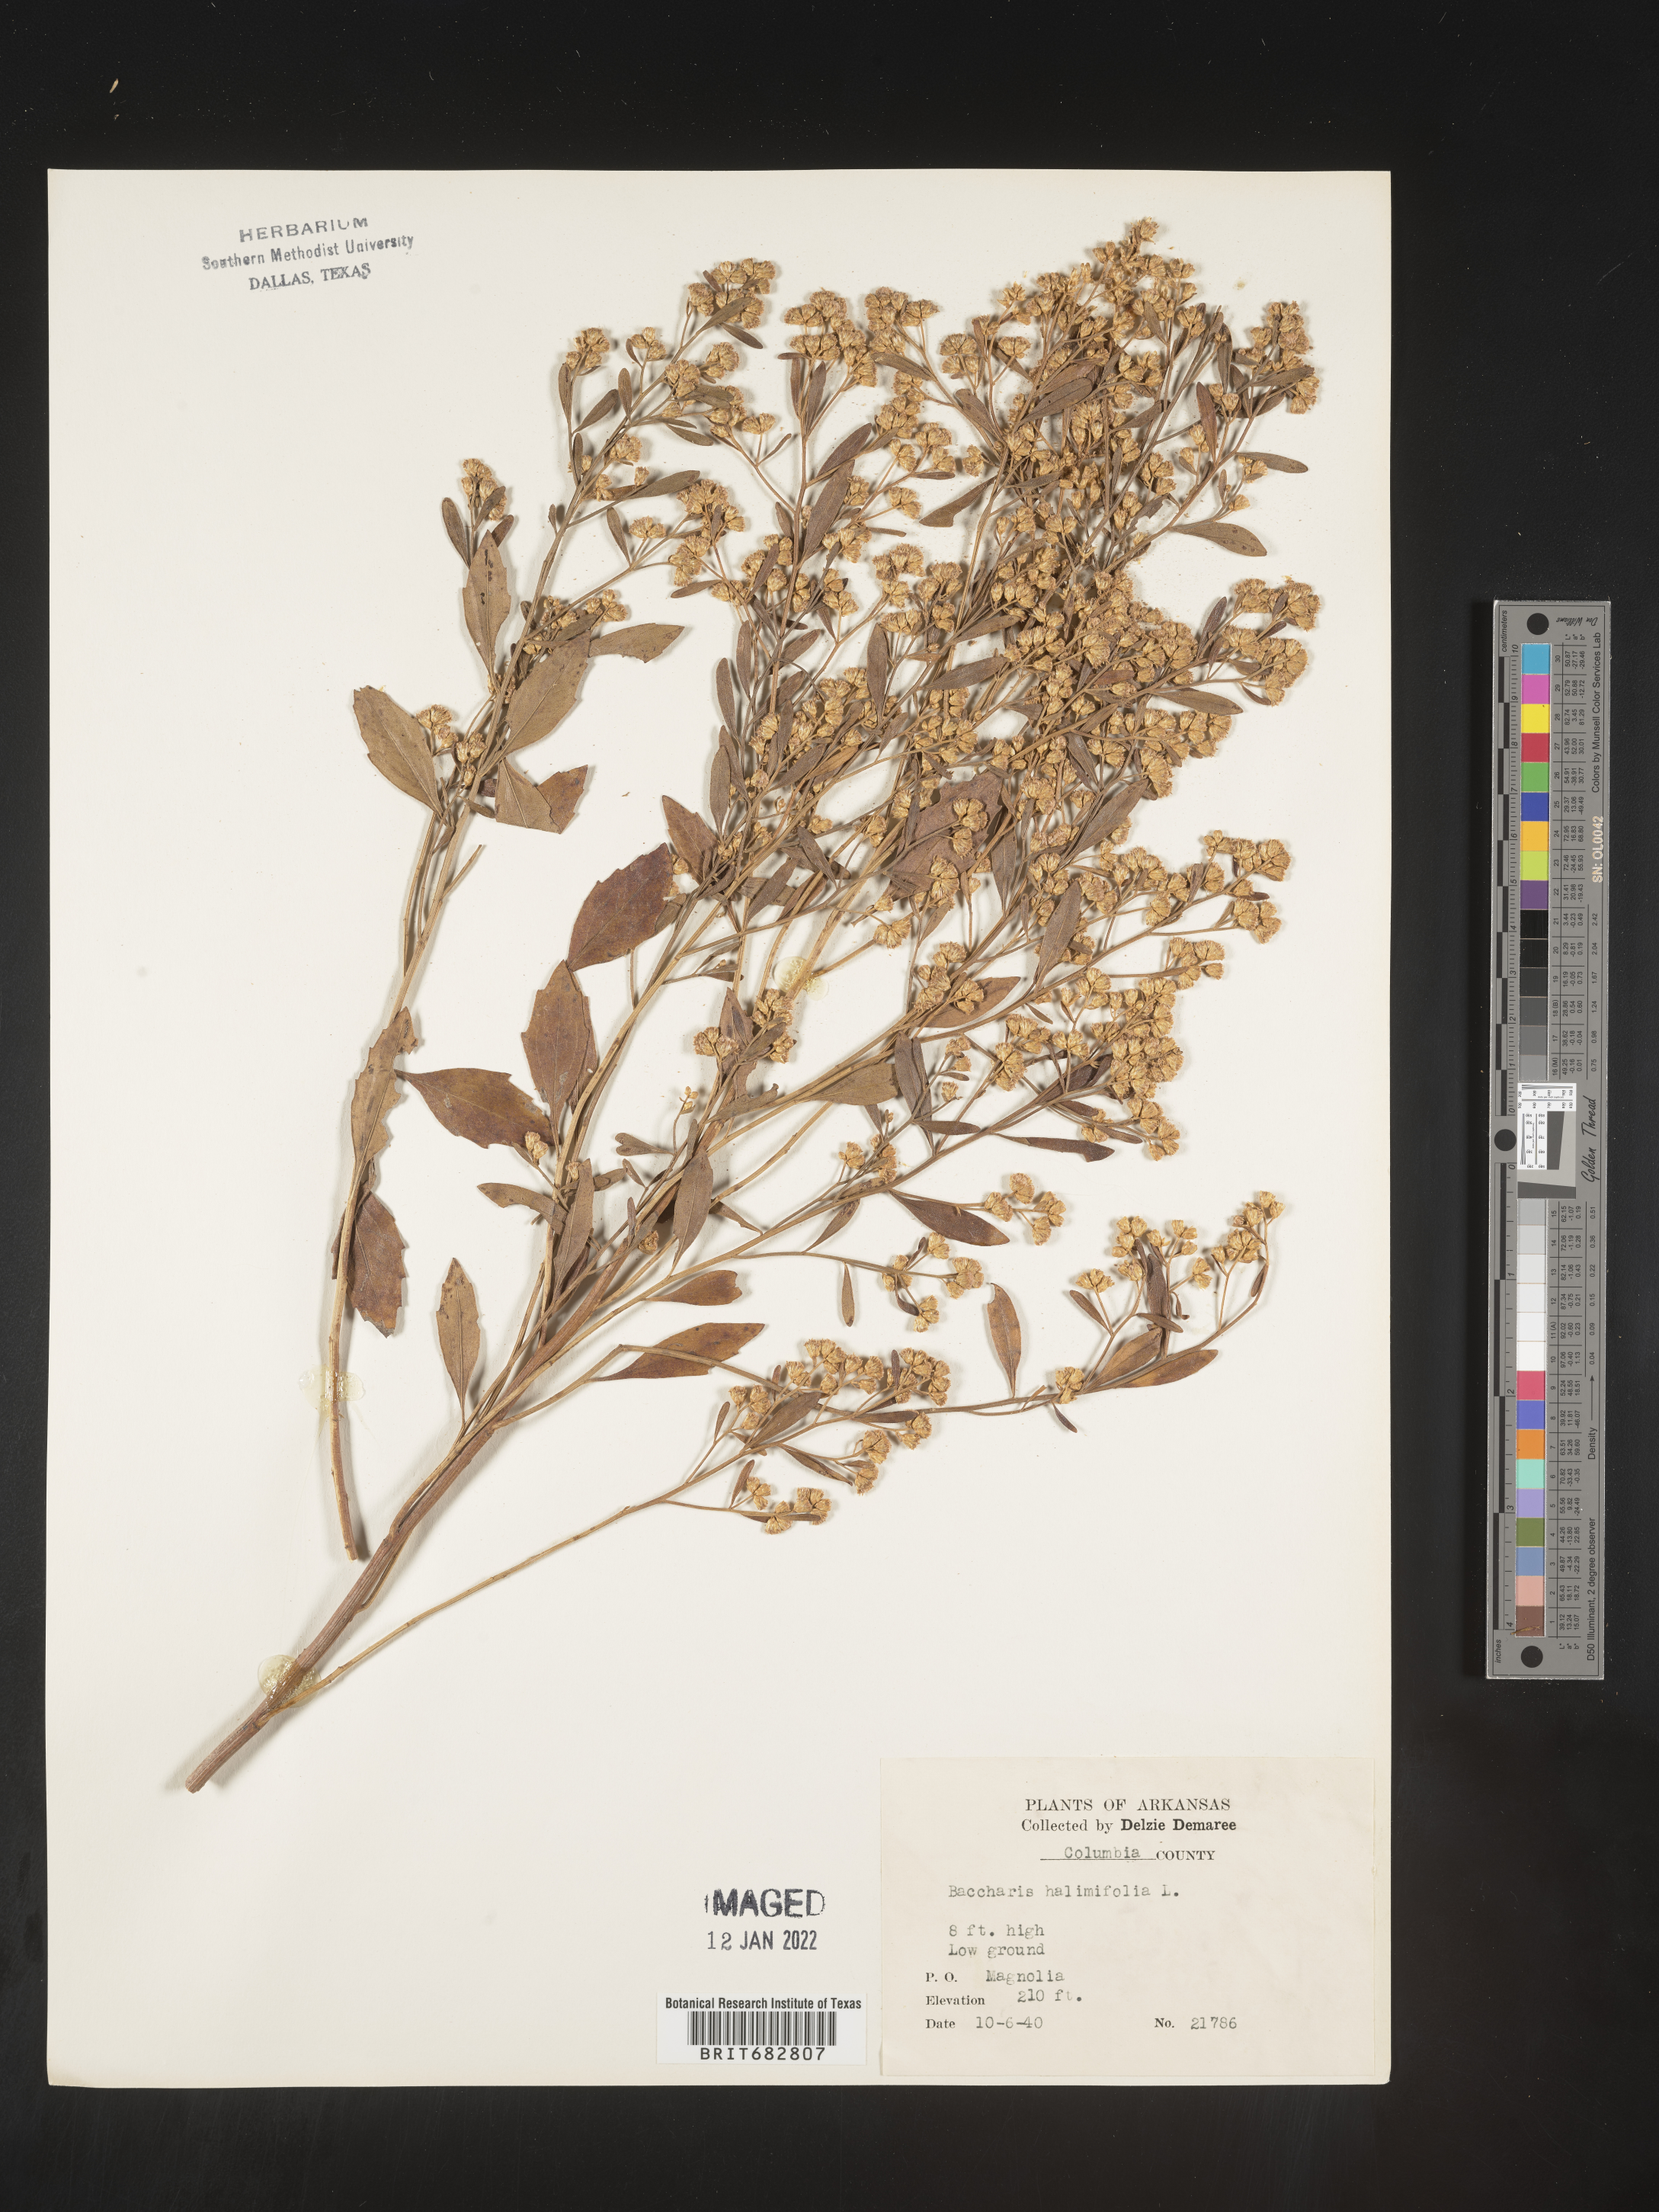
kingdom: Plantae
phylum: Tracheophyta
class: Magnoliopsida
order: Asterales
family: Asteraceae
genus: Nidorella
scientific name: Nidorella ivifolia
